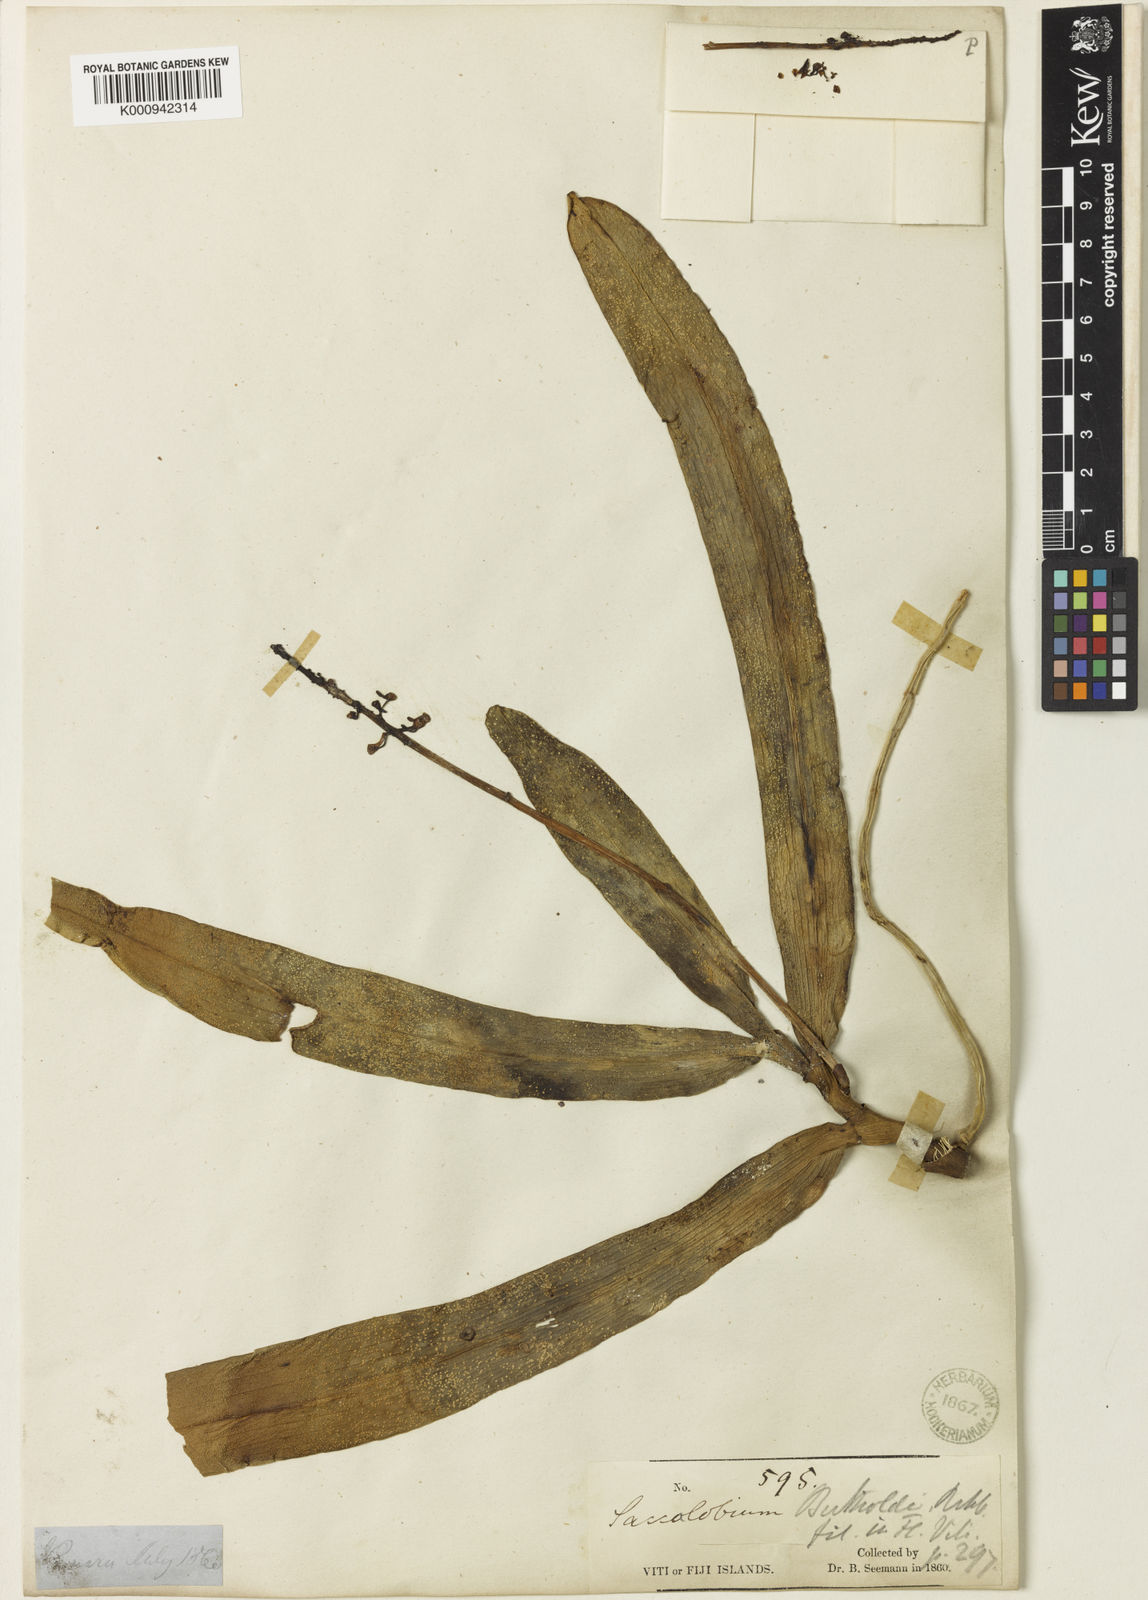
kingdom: Plantae
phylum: Tracheophyta
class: Liliopsida
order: Asparagales
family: Orchidaceae
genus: Robiquetia
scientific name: Robiquetia bertholdii
